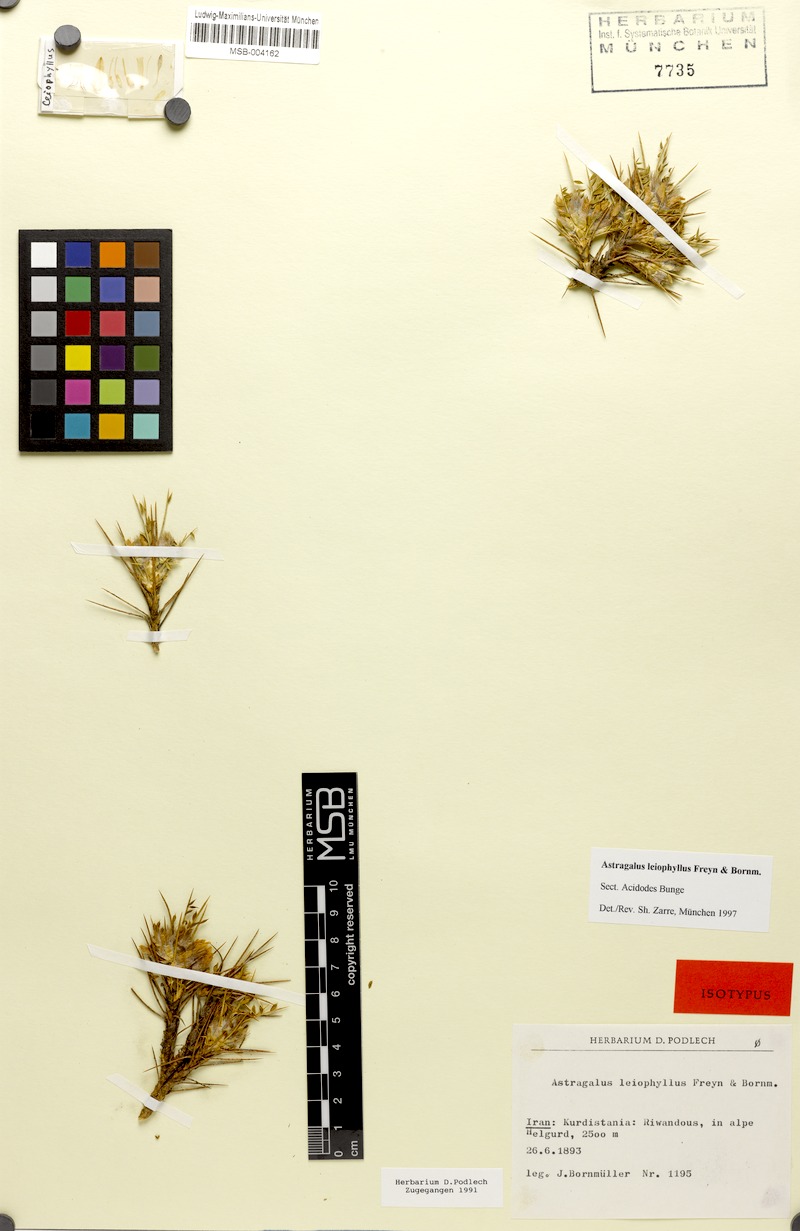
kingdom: Plantae
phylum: Tracheophyta
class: Magnoliopsida
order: Fabales
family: Fabaceae
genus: Astragalus
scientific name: Astragalus leiophyllus
